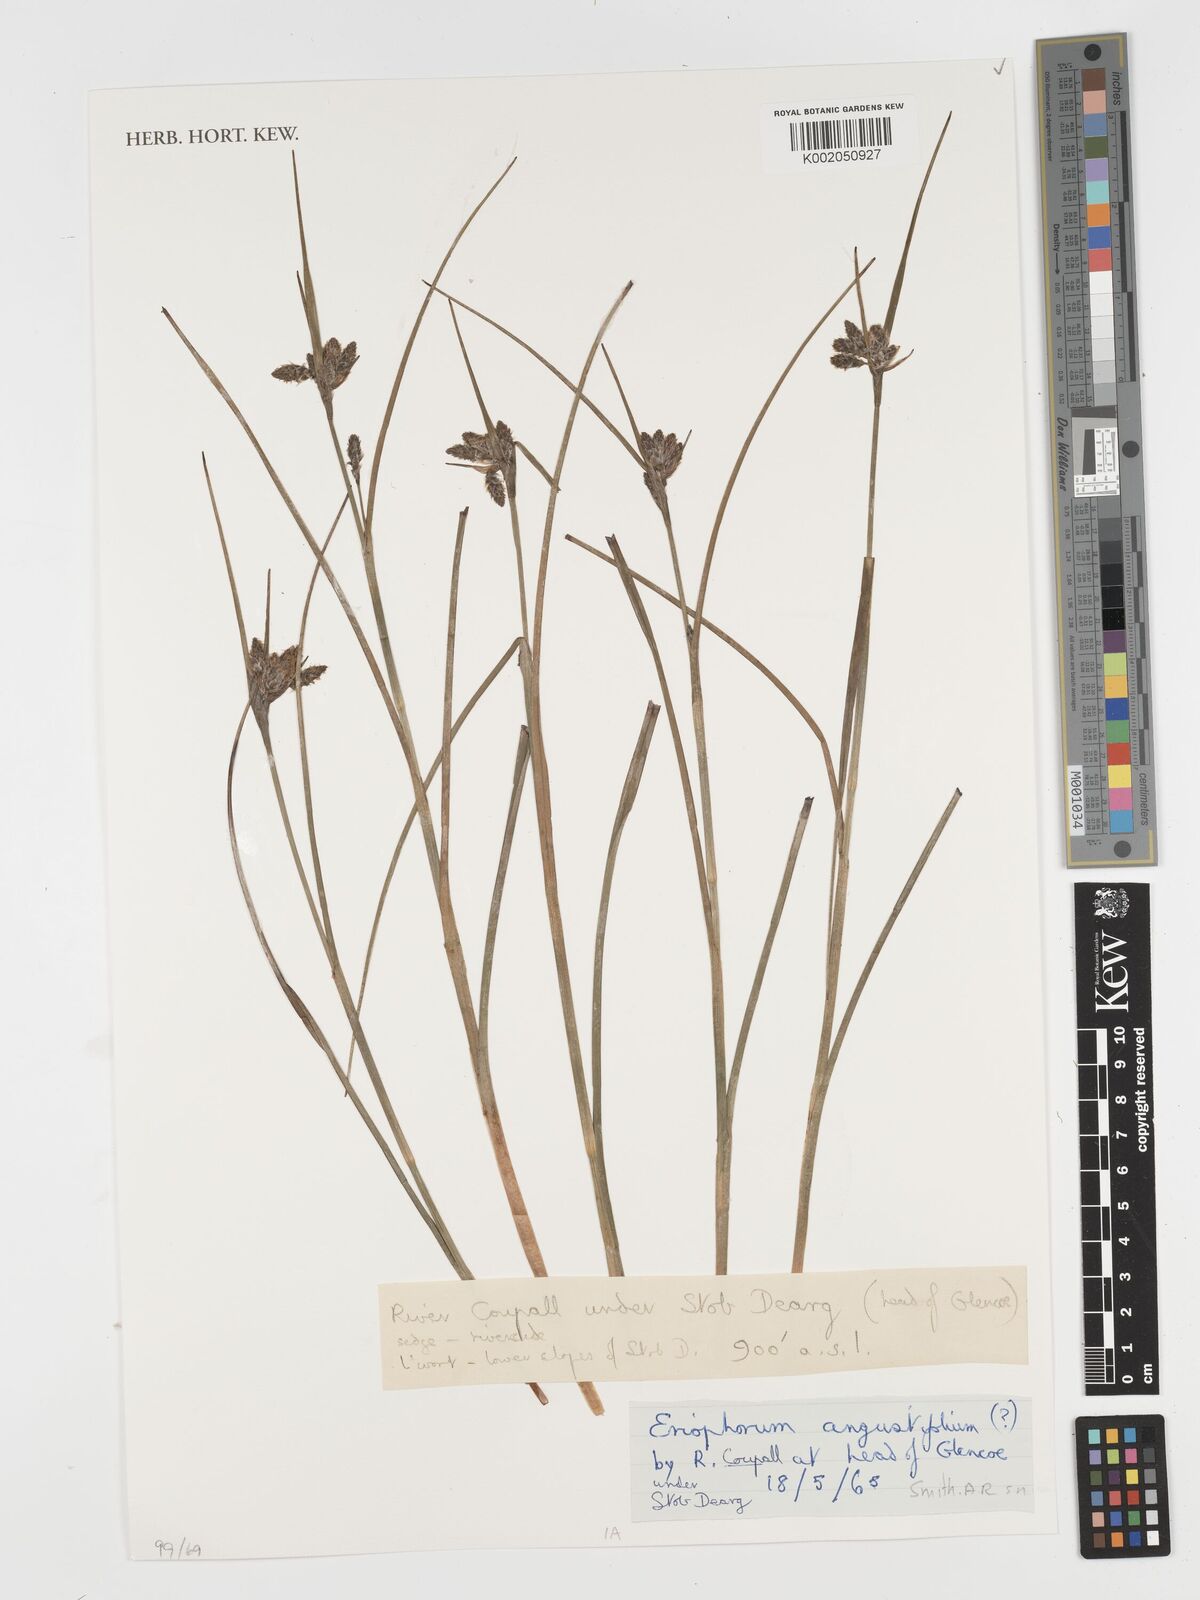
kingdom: Plantae
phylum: Tracheophyta
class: Liliopsida
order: Poales
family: Cyperaceae
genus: Eriophorum
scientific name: Eriophorum angustifolium
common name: Common cottongrass
